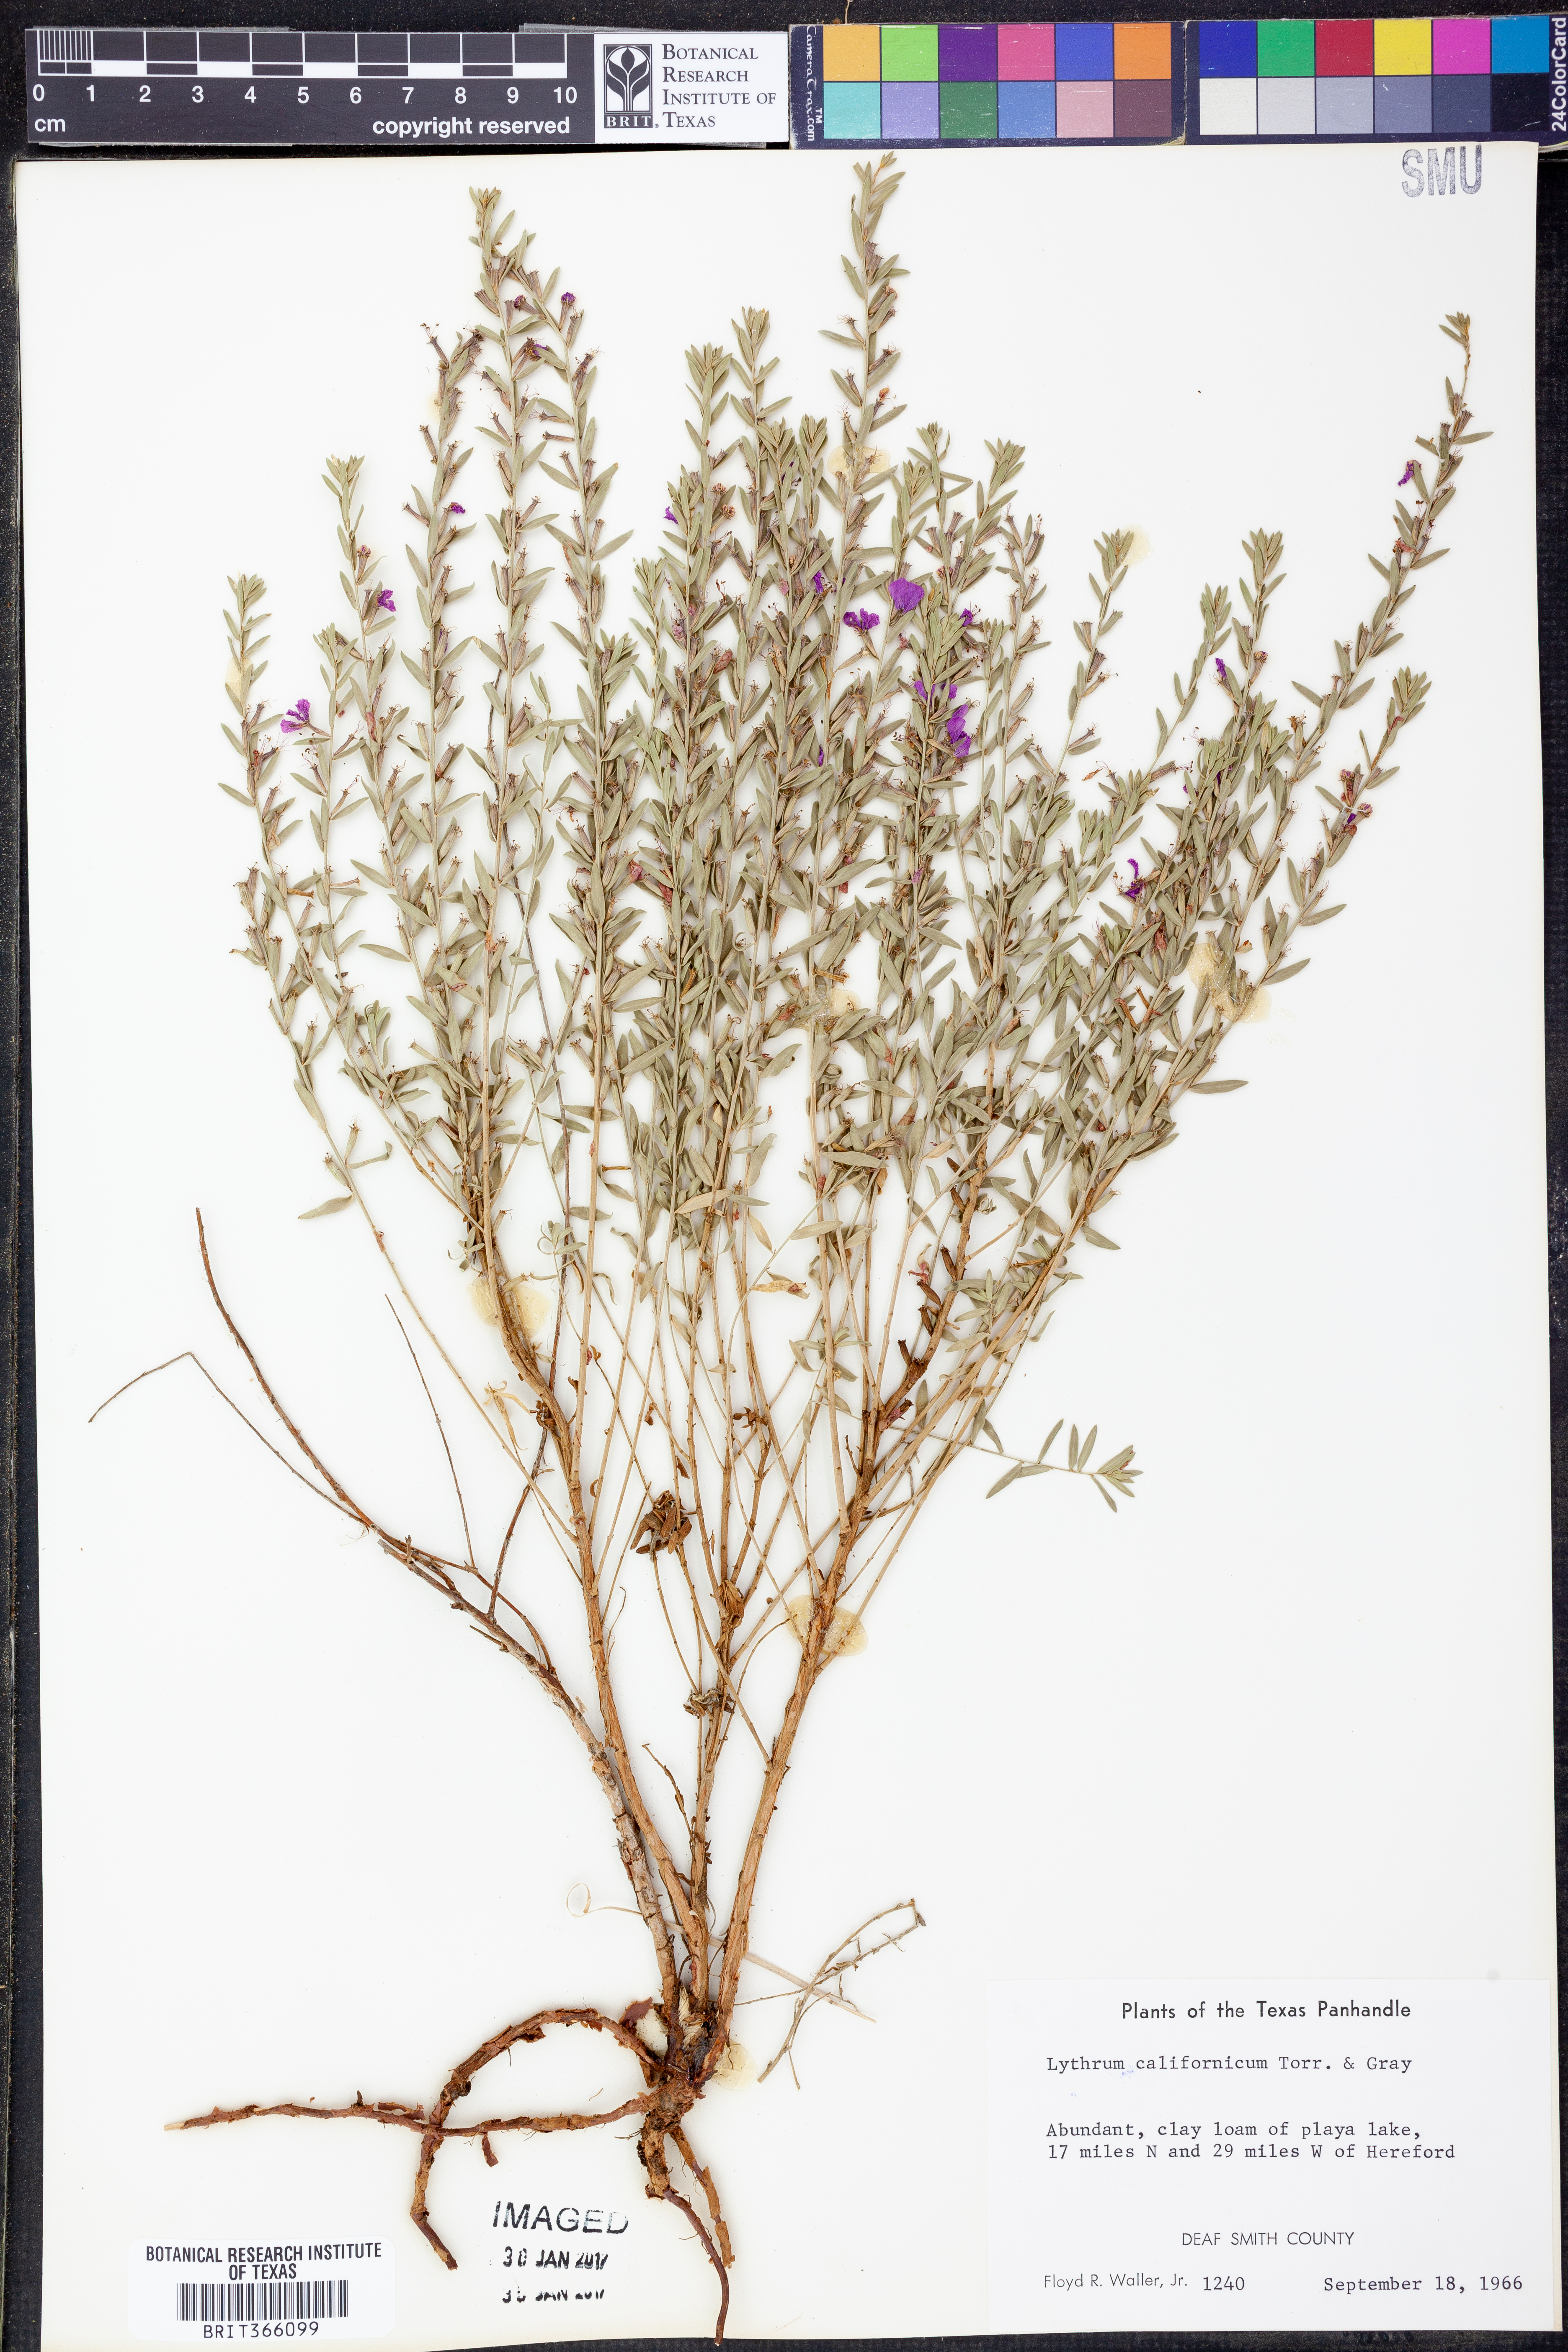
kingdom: Plantae
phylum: Tracheophyta
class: Magnoliopsida
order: Myrtales
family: Lythraceae
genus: Lythrum
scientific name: Lythrum californicum
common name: California loosestrife
